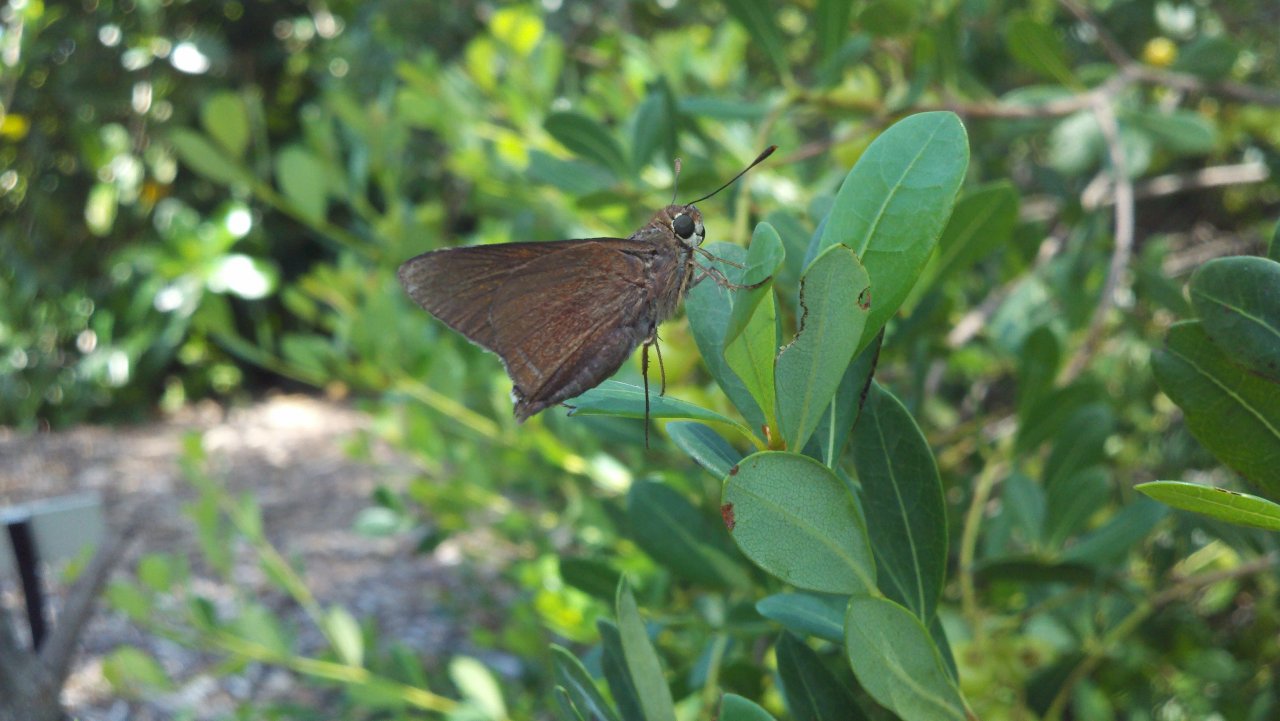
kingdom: Animalia
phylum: Arthropoda
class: Insecta
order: Lepidoptera
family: Hesperiidae
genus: Asbolis
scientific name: Asbolis capucinus
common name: Monk Skipper
